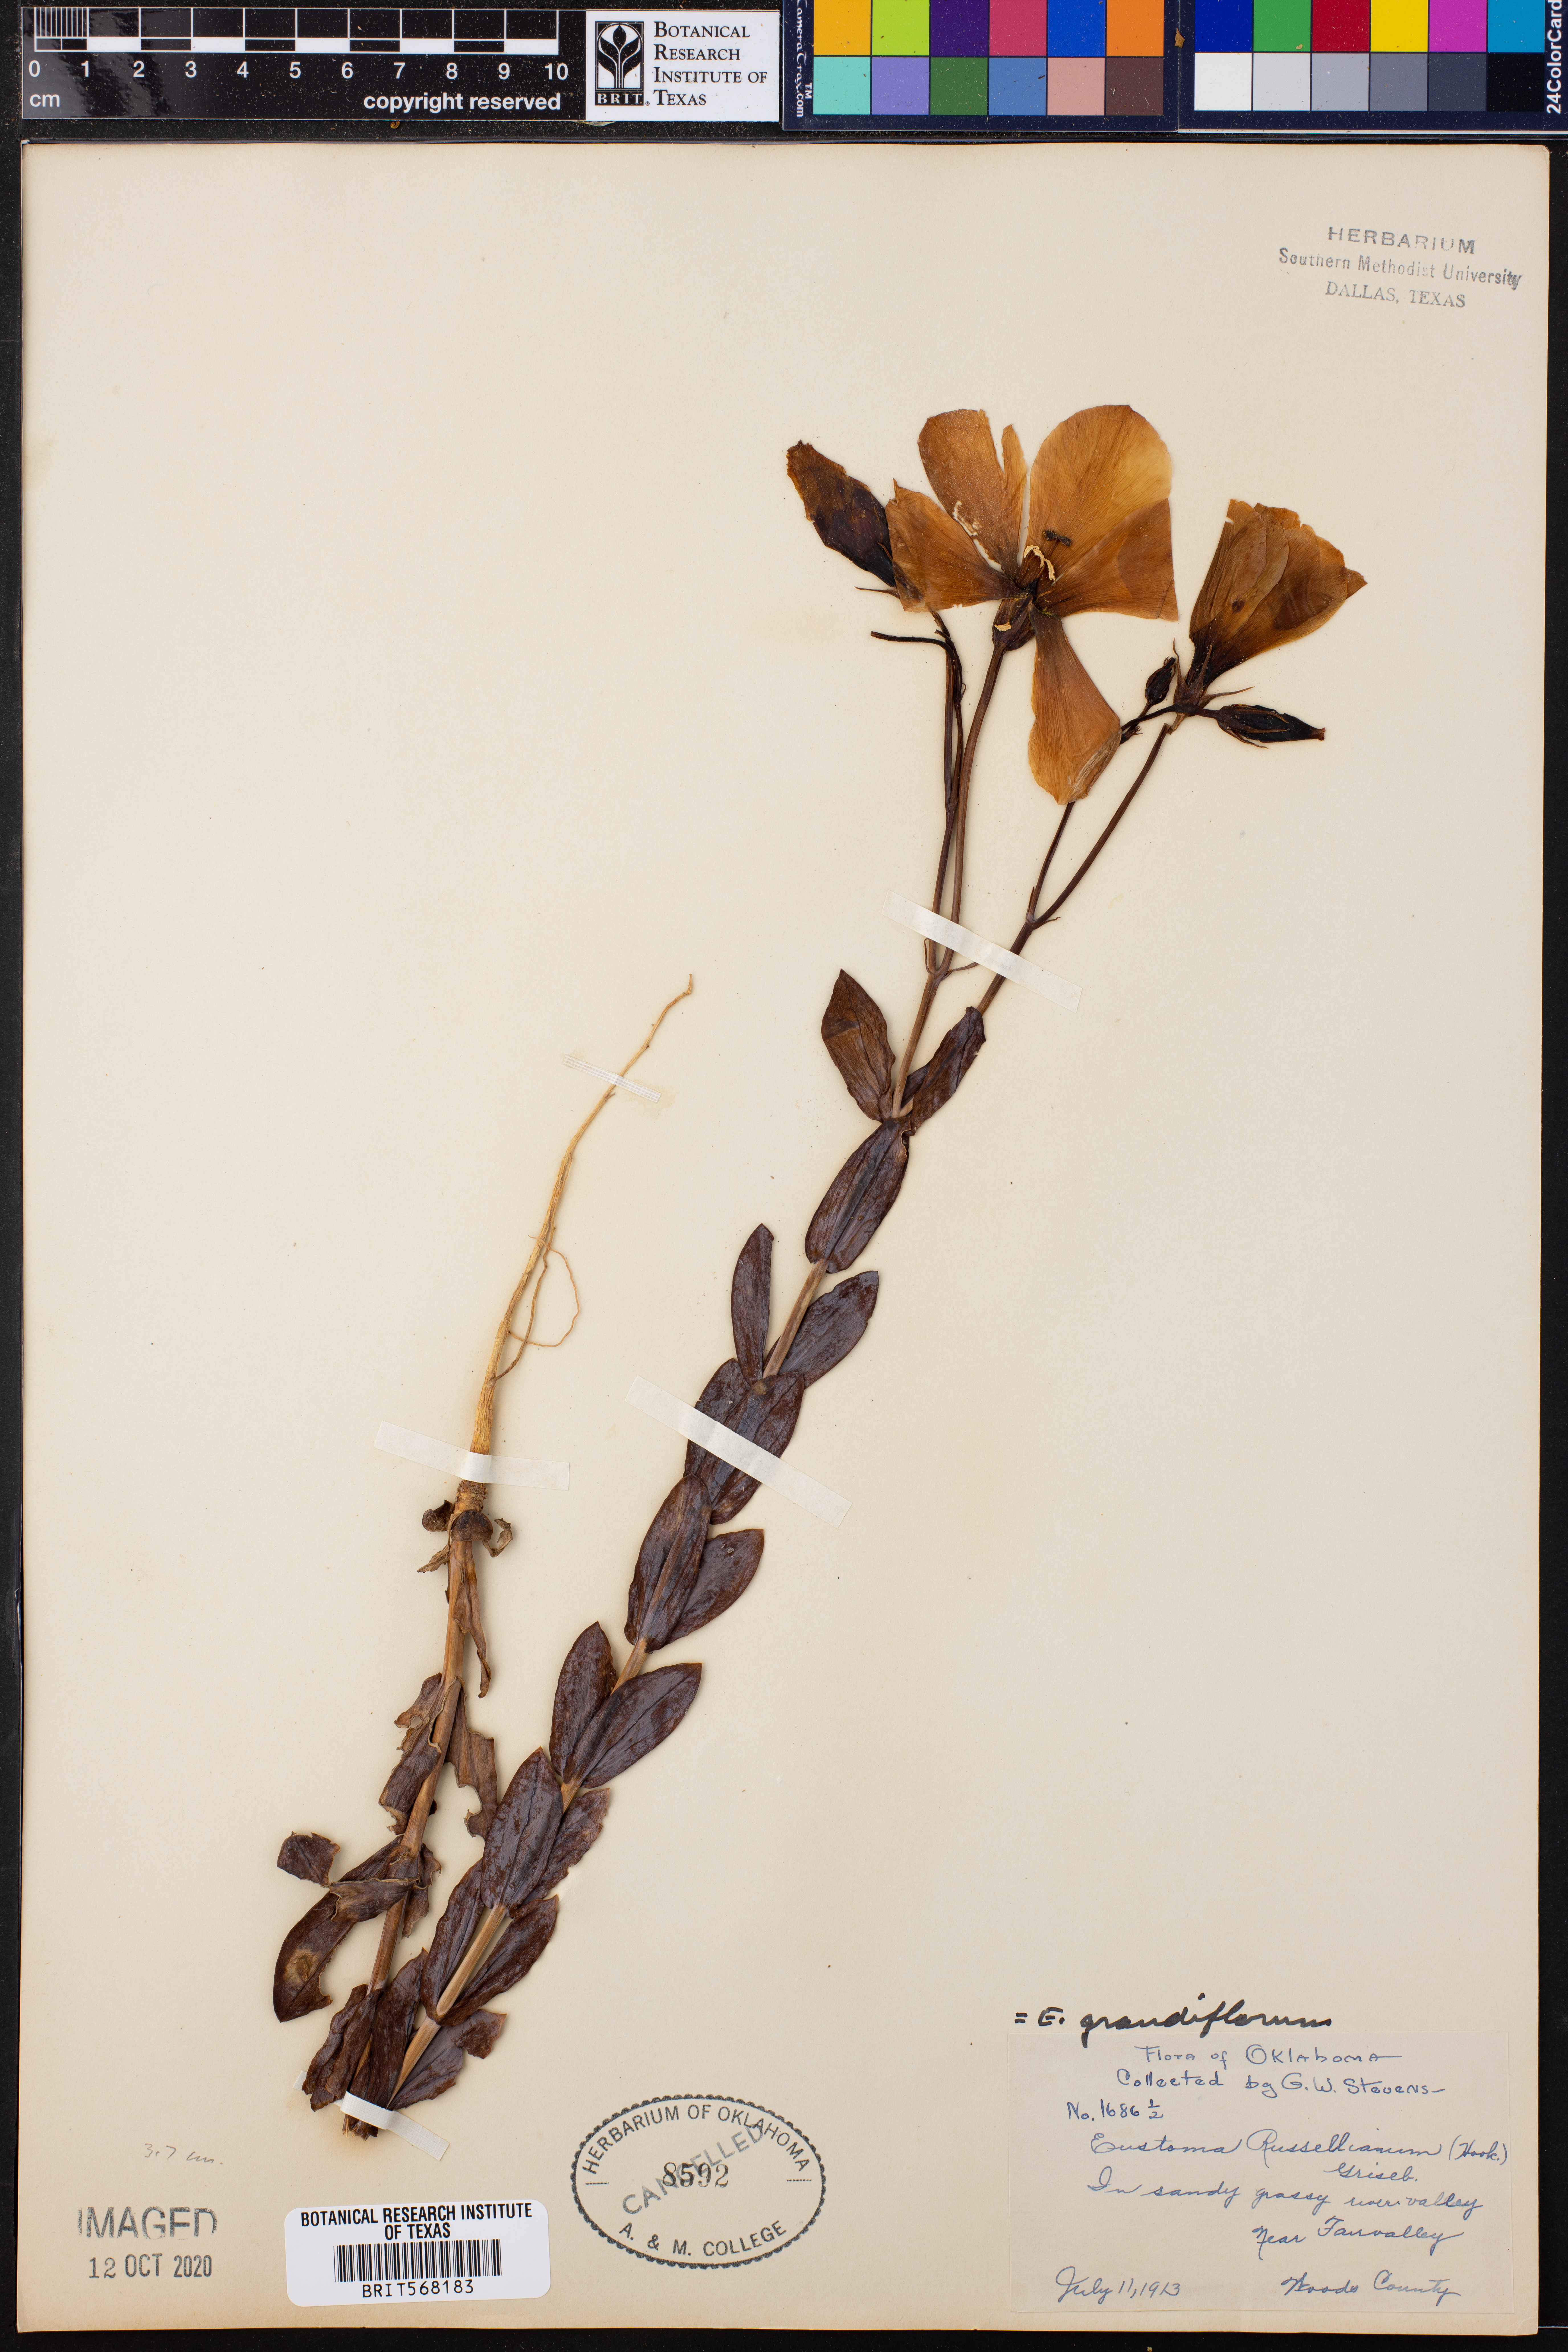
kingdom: Plantae
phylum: Tracheophyta
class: Magnoliopsida
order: Gentianales
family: Gentianaceae
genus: Eustoma
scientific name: Eustoma russellianum
